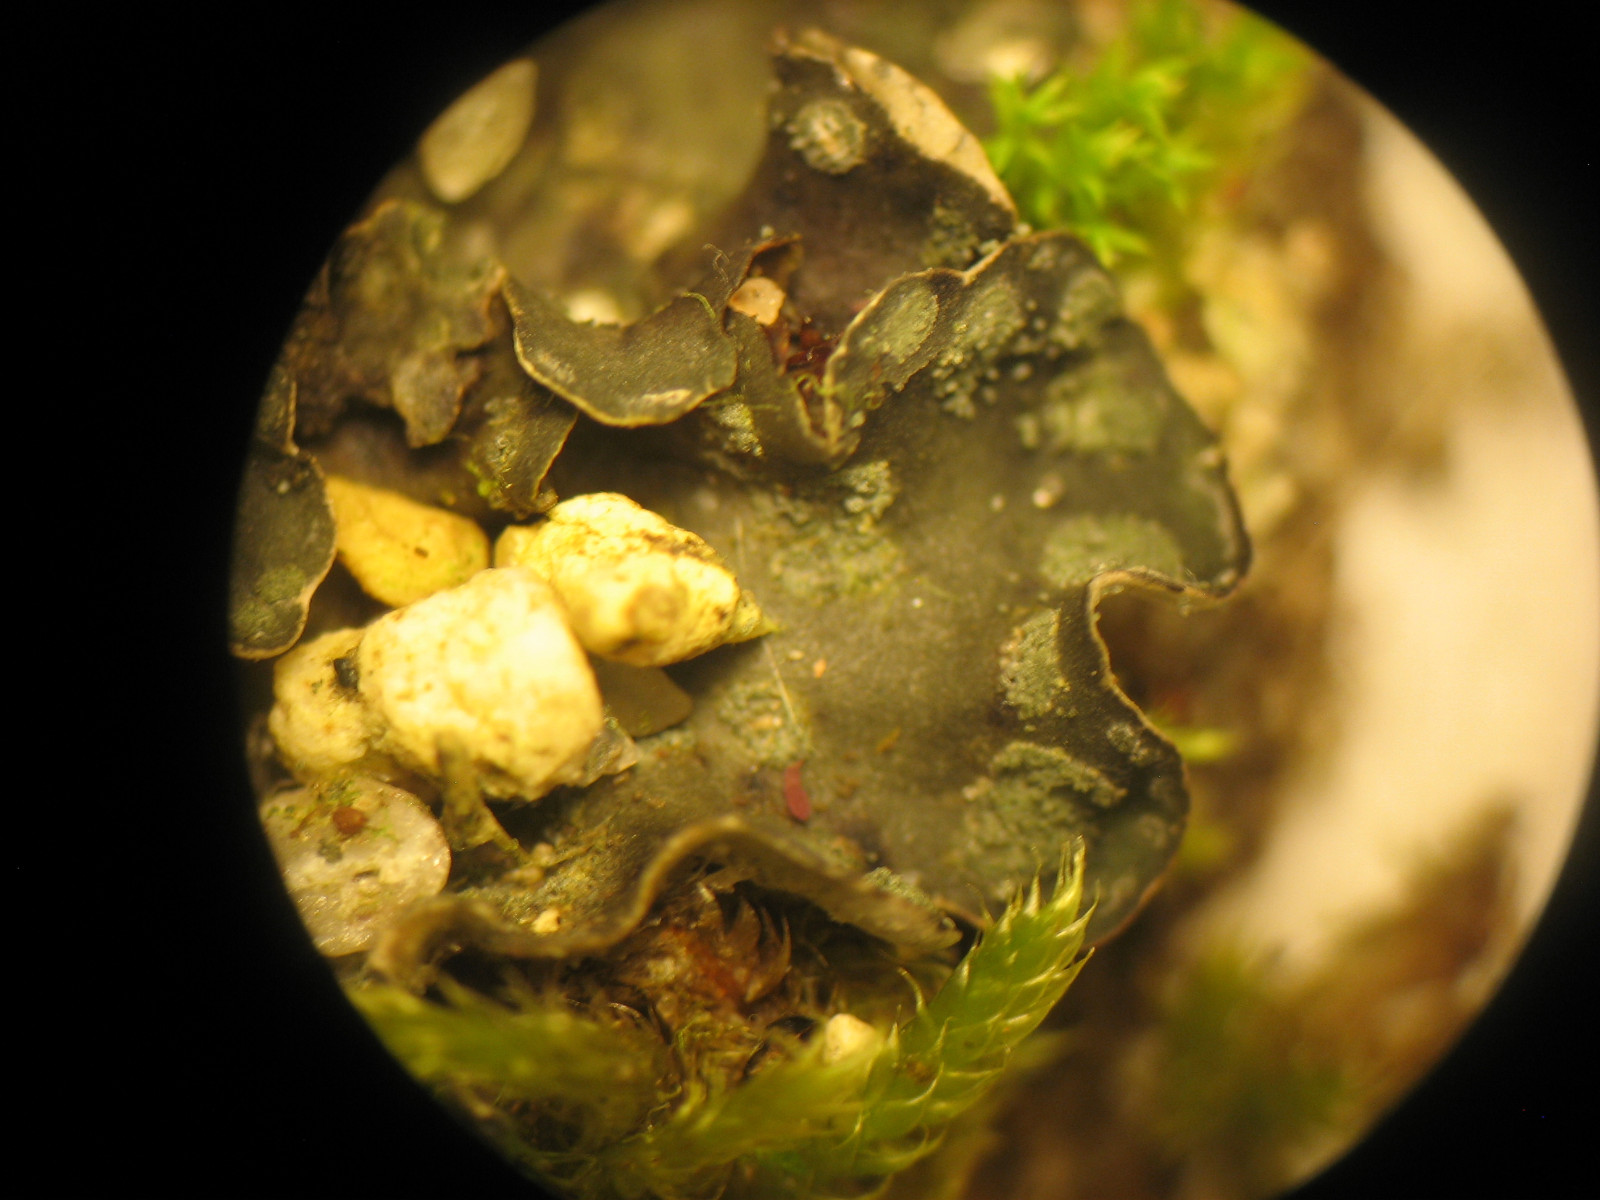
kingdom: Fungi
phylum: Ascomycota
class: Lecanoromycetes
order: Peltigerales
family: Peltigeraceae
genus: Peltigera
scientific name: Peltigera didactyla
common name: liden skjoldlav
